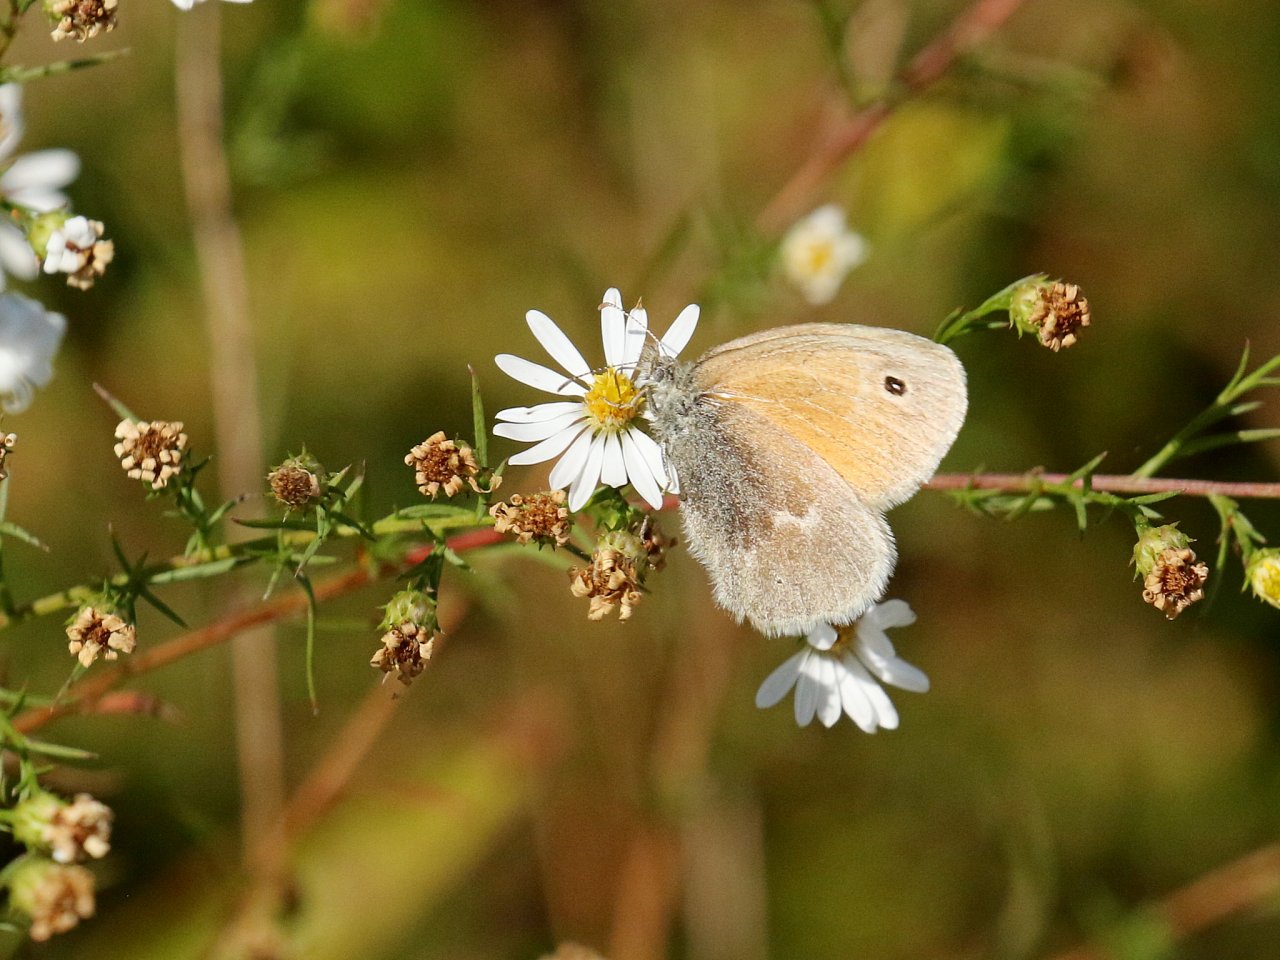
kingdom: Animalia
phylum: Arthropoda
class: Insecta
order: Lepidoptera
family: Nymphalidae
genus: Coenonympha
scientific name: Coenonympha tullia
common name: Large Heath
